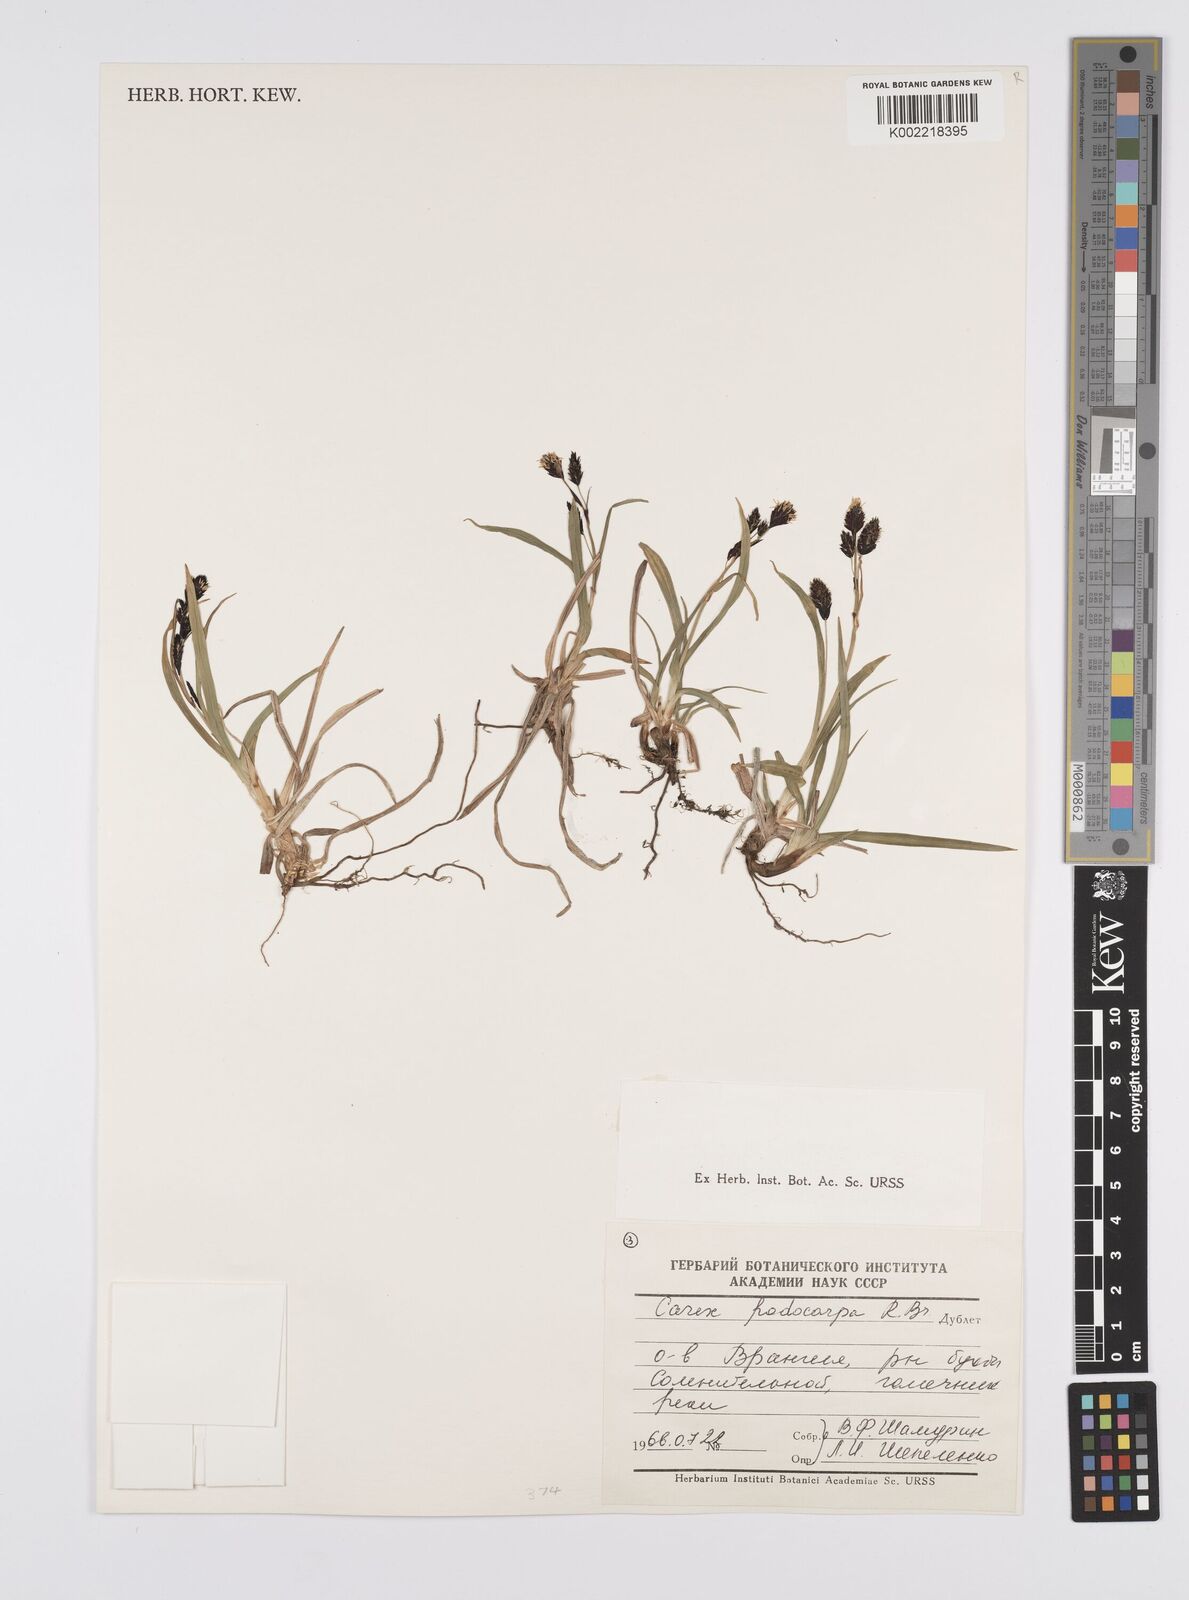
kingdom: Plantae
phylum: Tracheophyta
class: Liliopsida
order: Poales
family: Cyperaceae
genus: Carex
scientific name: Carex podocarpa
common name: Alpine sedge
